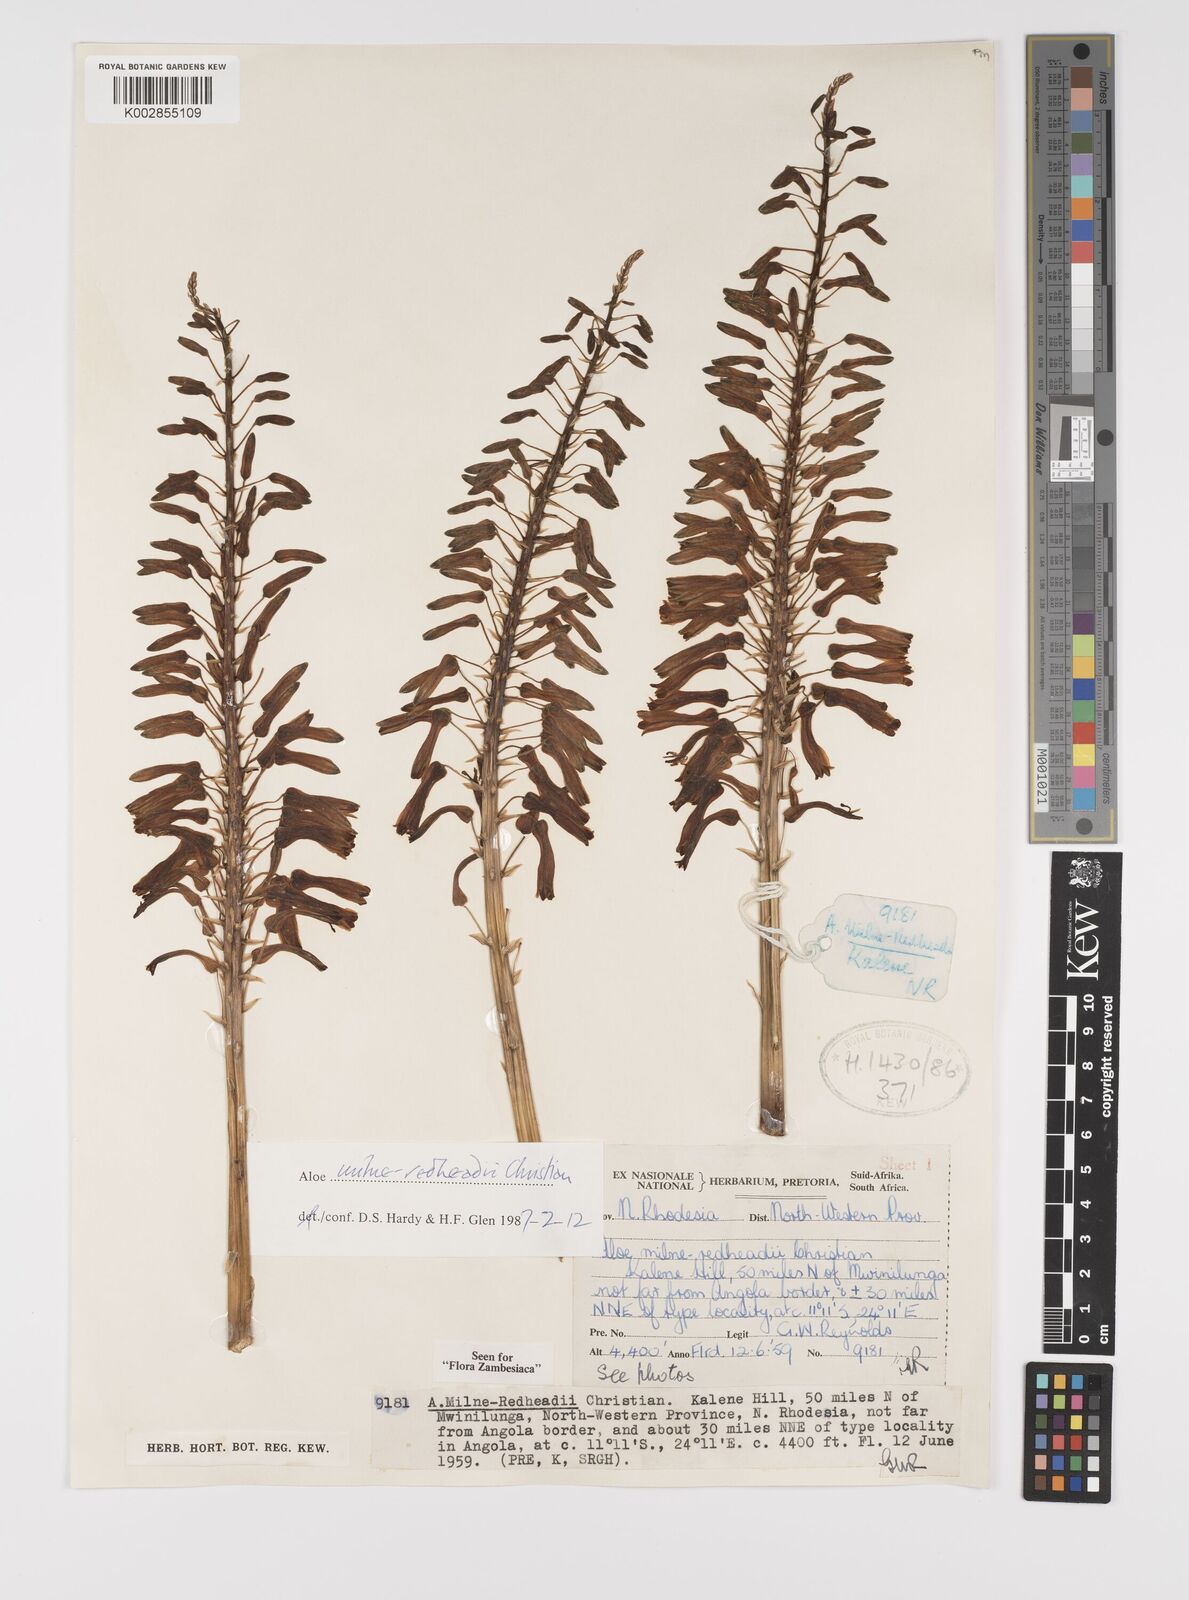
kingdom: Plantae
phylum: Tracheophyta
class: Liliopsida
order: Asparagales
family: Asphodelaceae
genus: Aloe
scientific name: Aloe milne-redheadii
